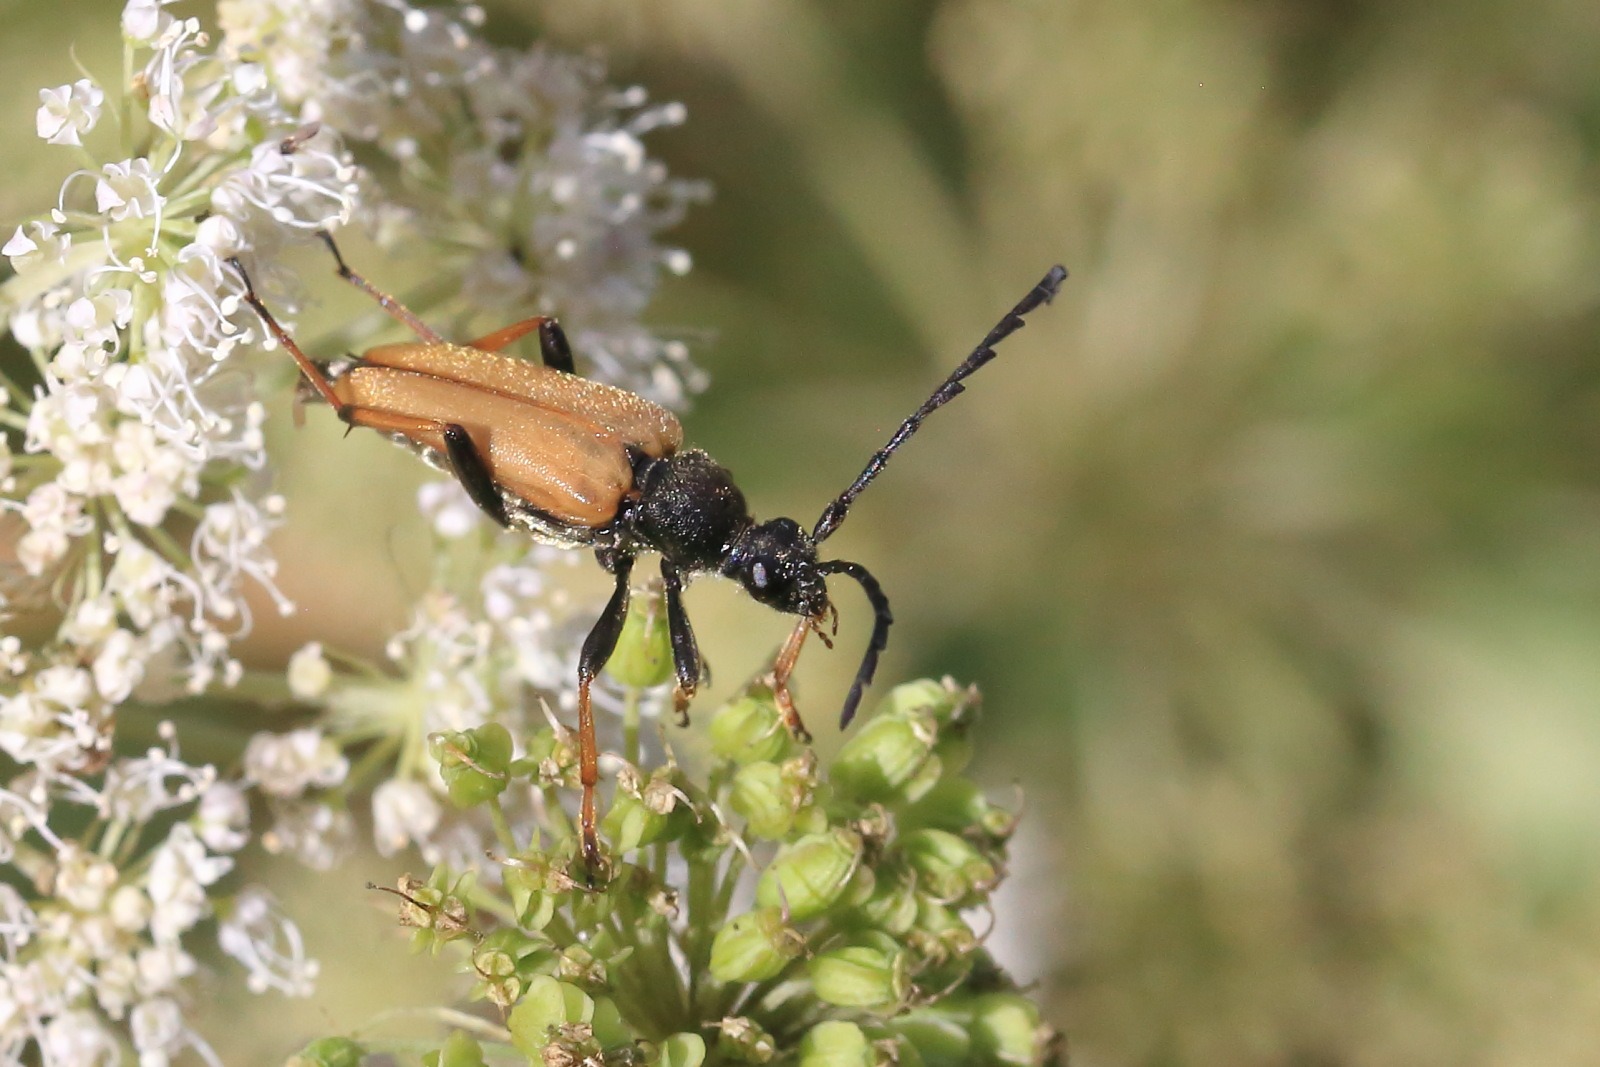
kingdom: Animalia
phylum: Arthropoda
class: Insecta
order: Coleoptera
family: Cerambycidae
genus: Stictoleptura
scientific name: Stictoleptura rubra
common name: Rød blomsterbuk
